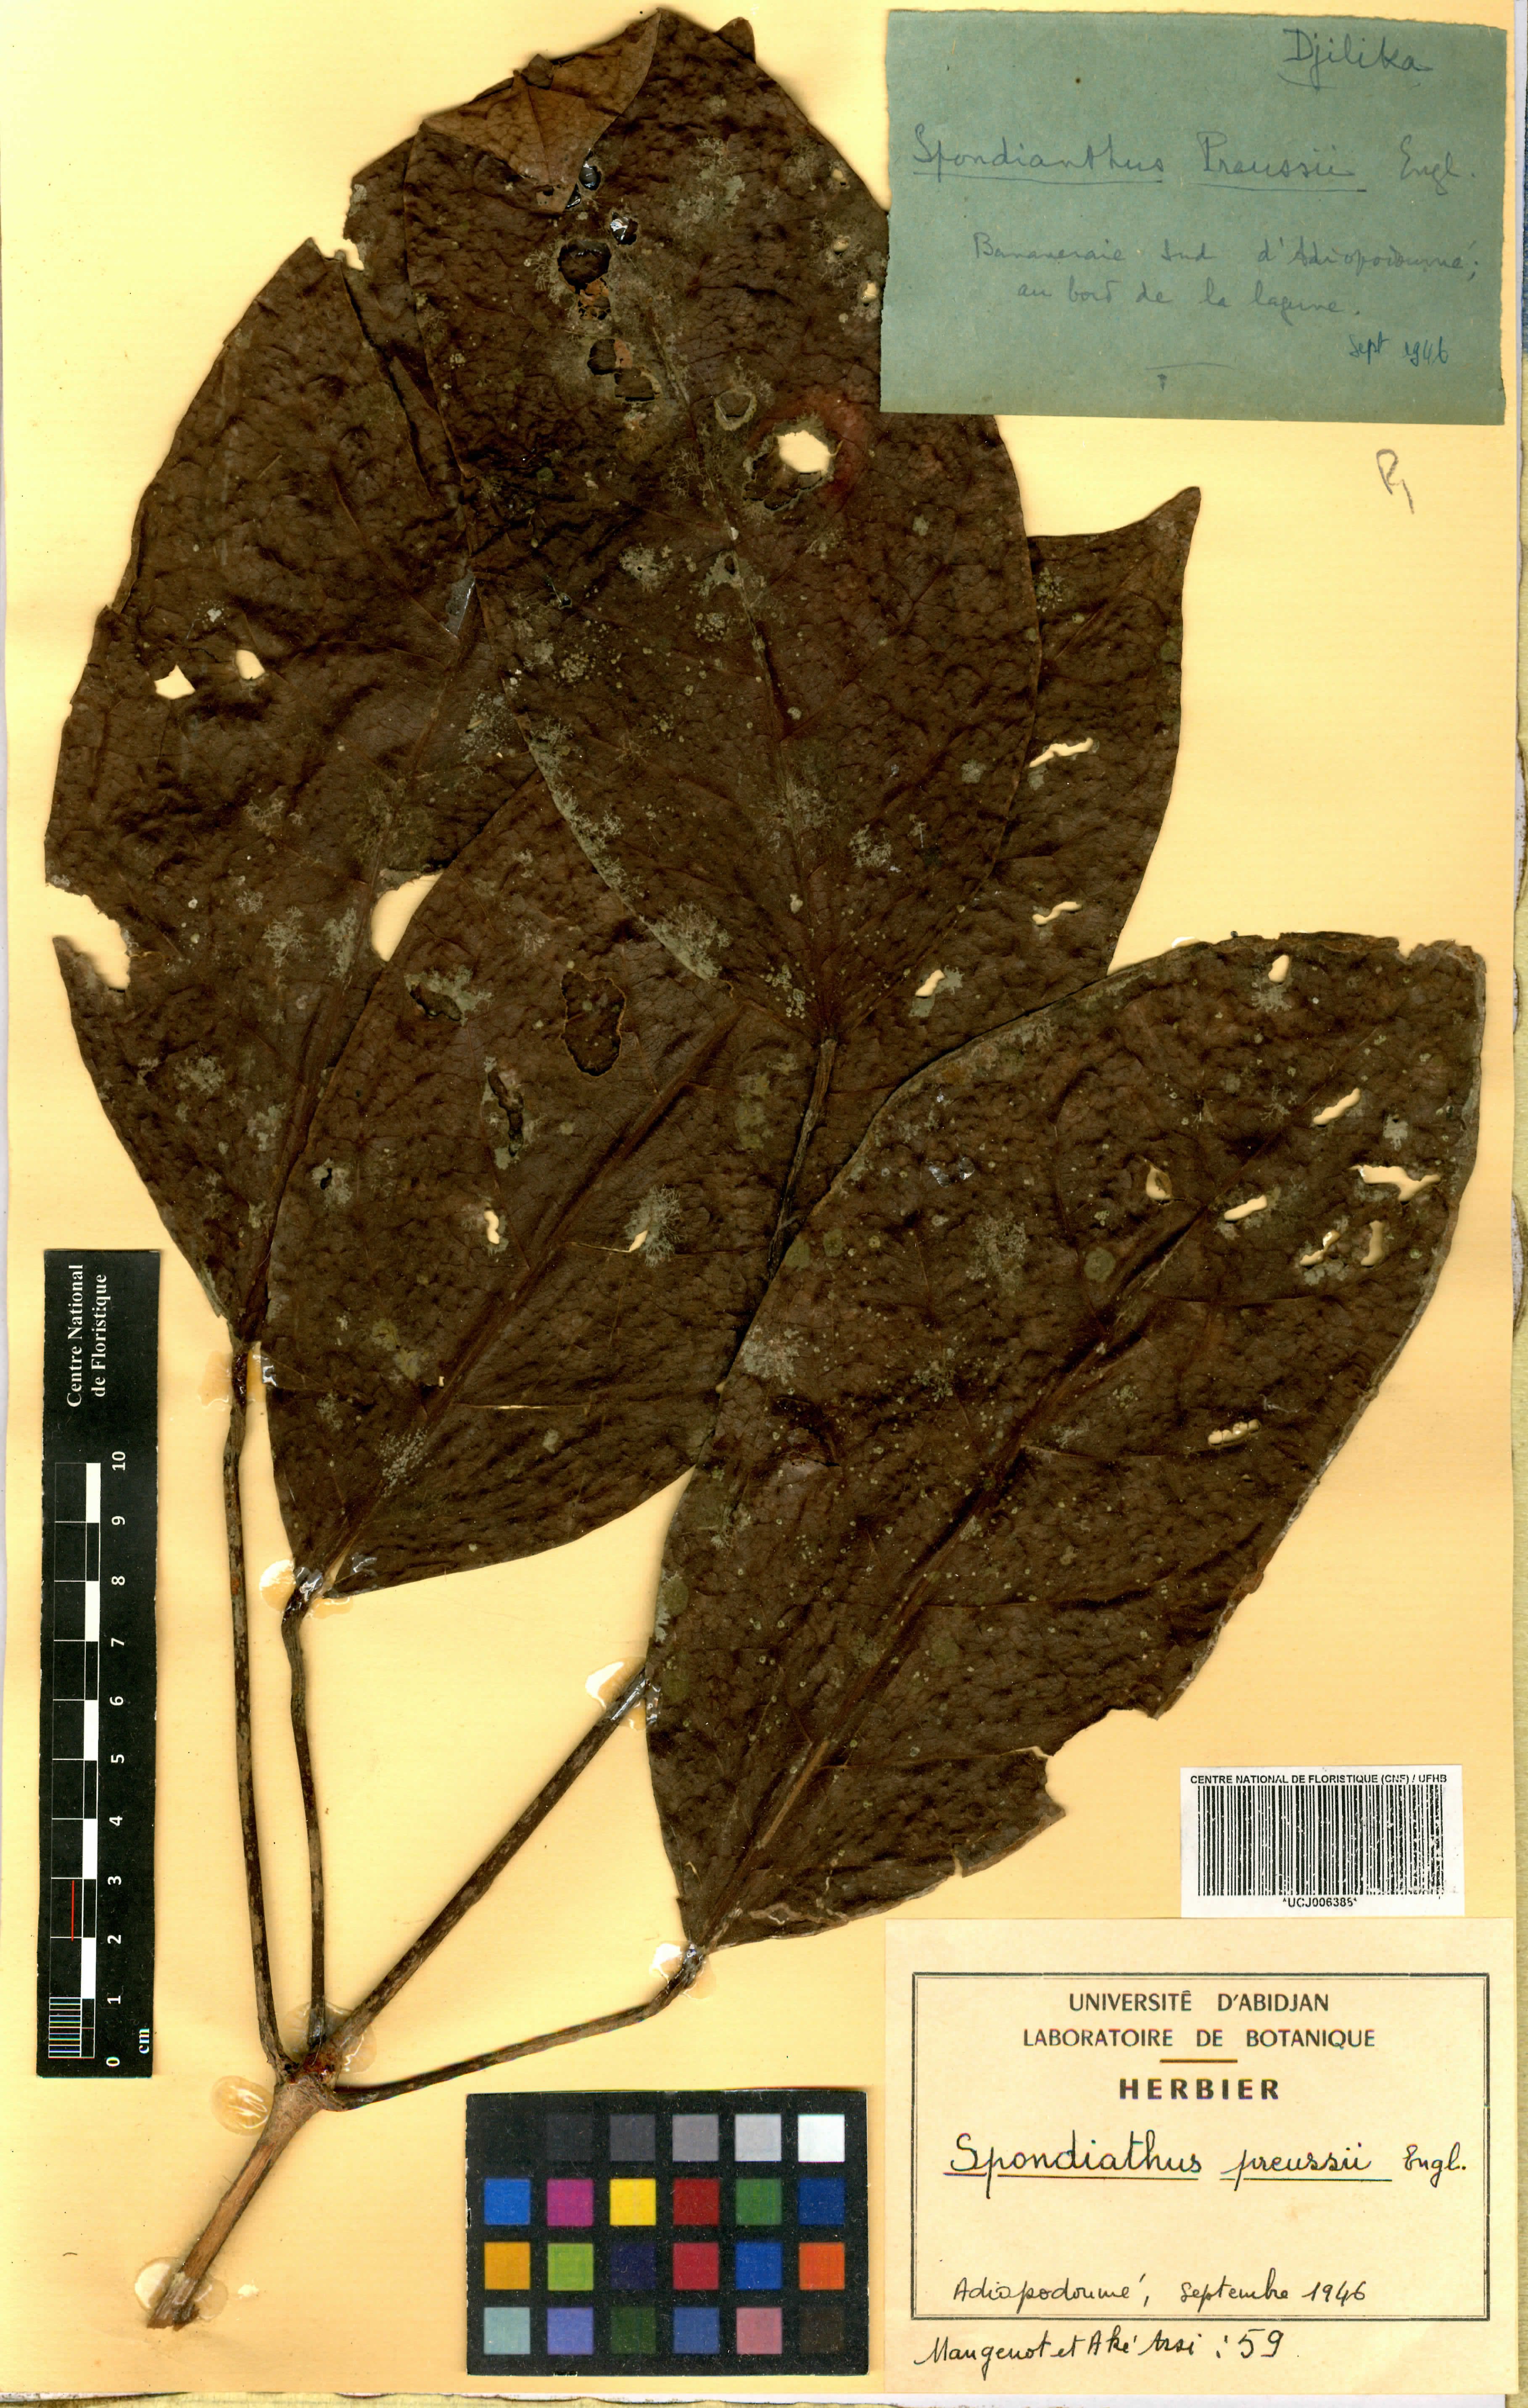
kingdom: Plantae
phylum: Tracheophyta
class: Magnoliopsida
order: Malpighiales
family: Phyllanthaceae
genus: Spondianthus
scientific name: Spondianthus preussii
